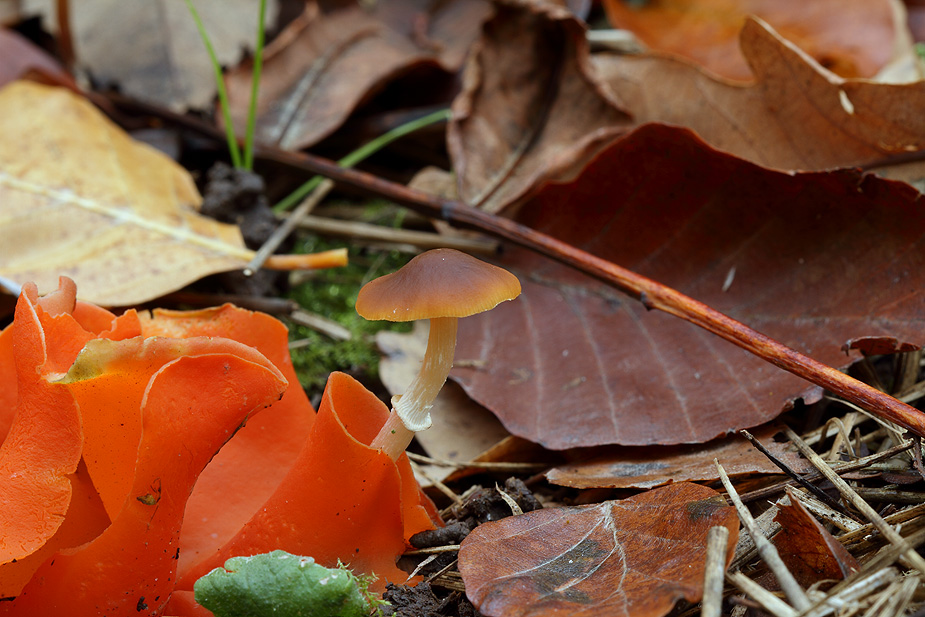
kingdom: Fungi
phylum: Basidiomycota
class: Agaricomycetes
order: Agaricales
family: Bolbitiaceae
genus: Conocybe
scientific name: Conocybe arrhenii
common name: ring-dansehat
